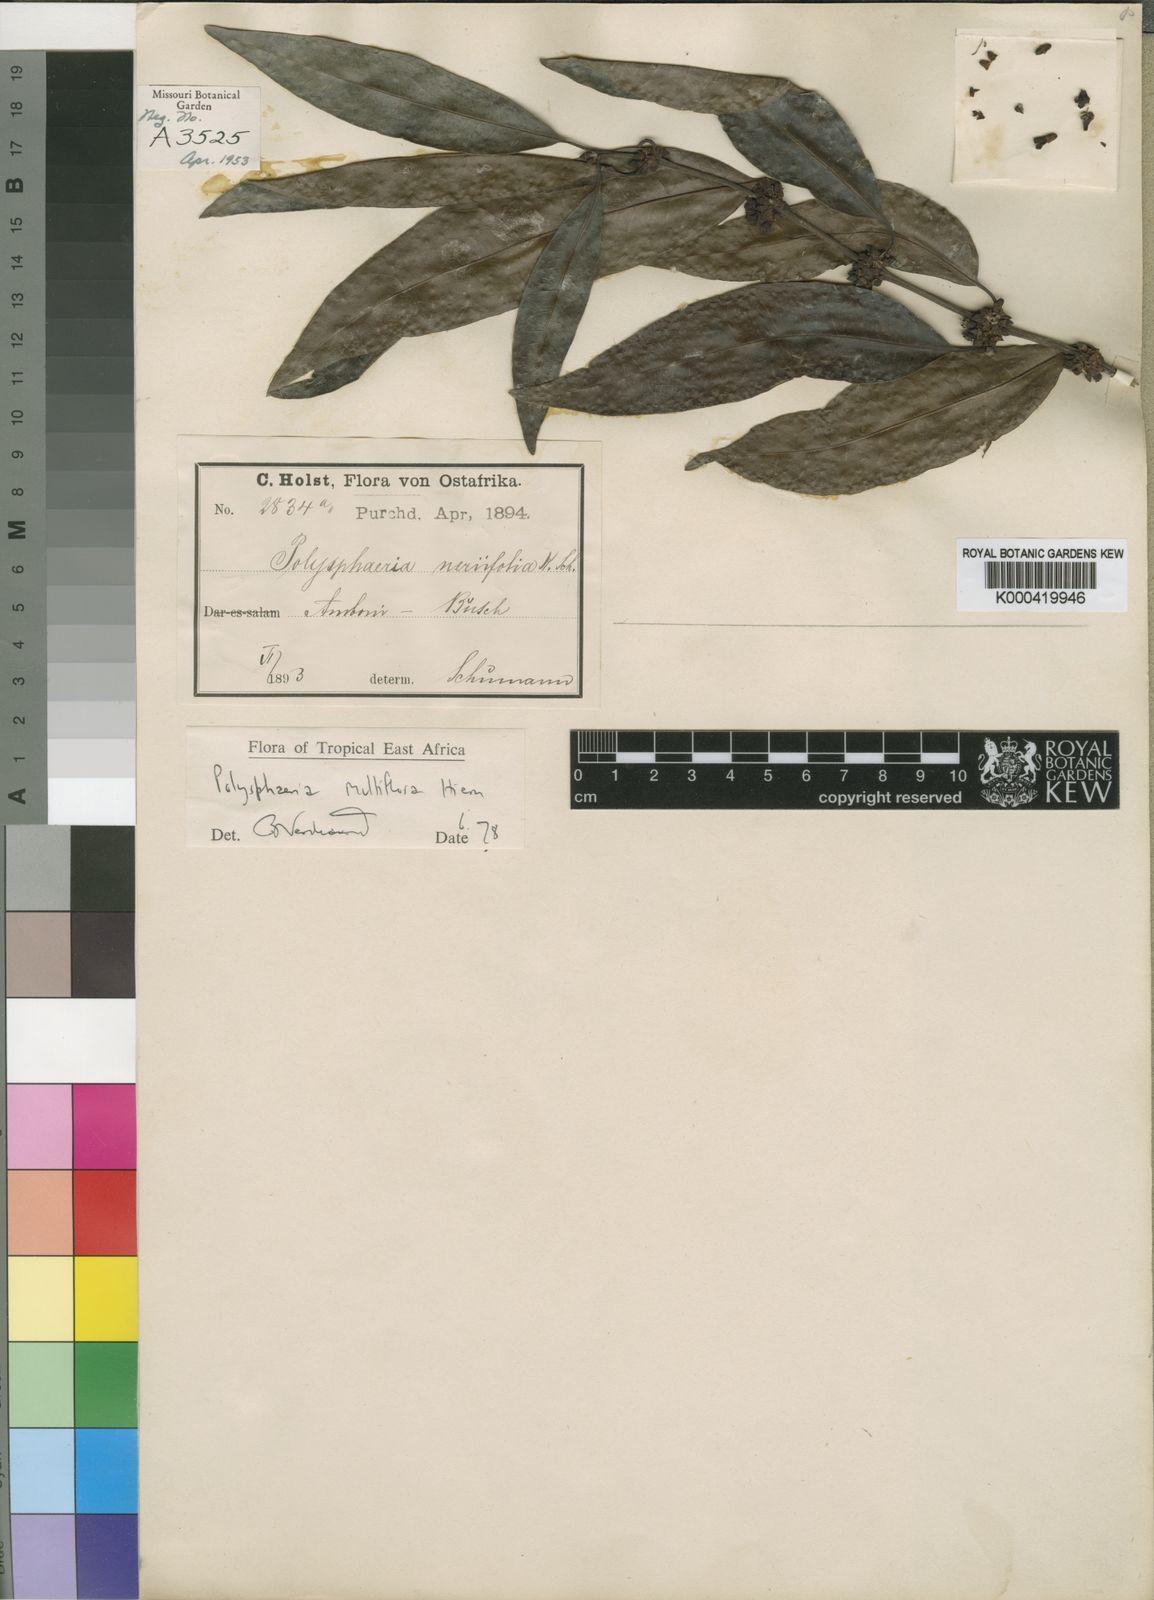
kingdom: Plantae
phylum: Tracheophyta
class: Magnoliopsida
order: Gentianales
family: Rubiaceae
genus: Polysphaeria
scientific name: Polysphaeria multiflora
